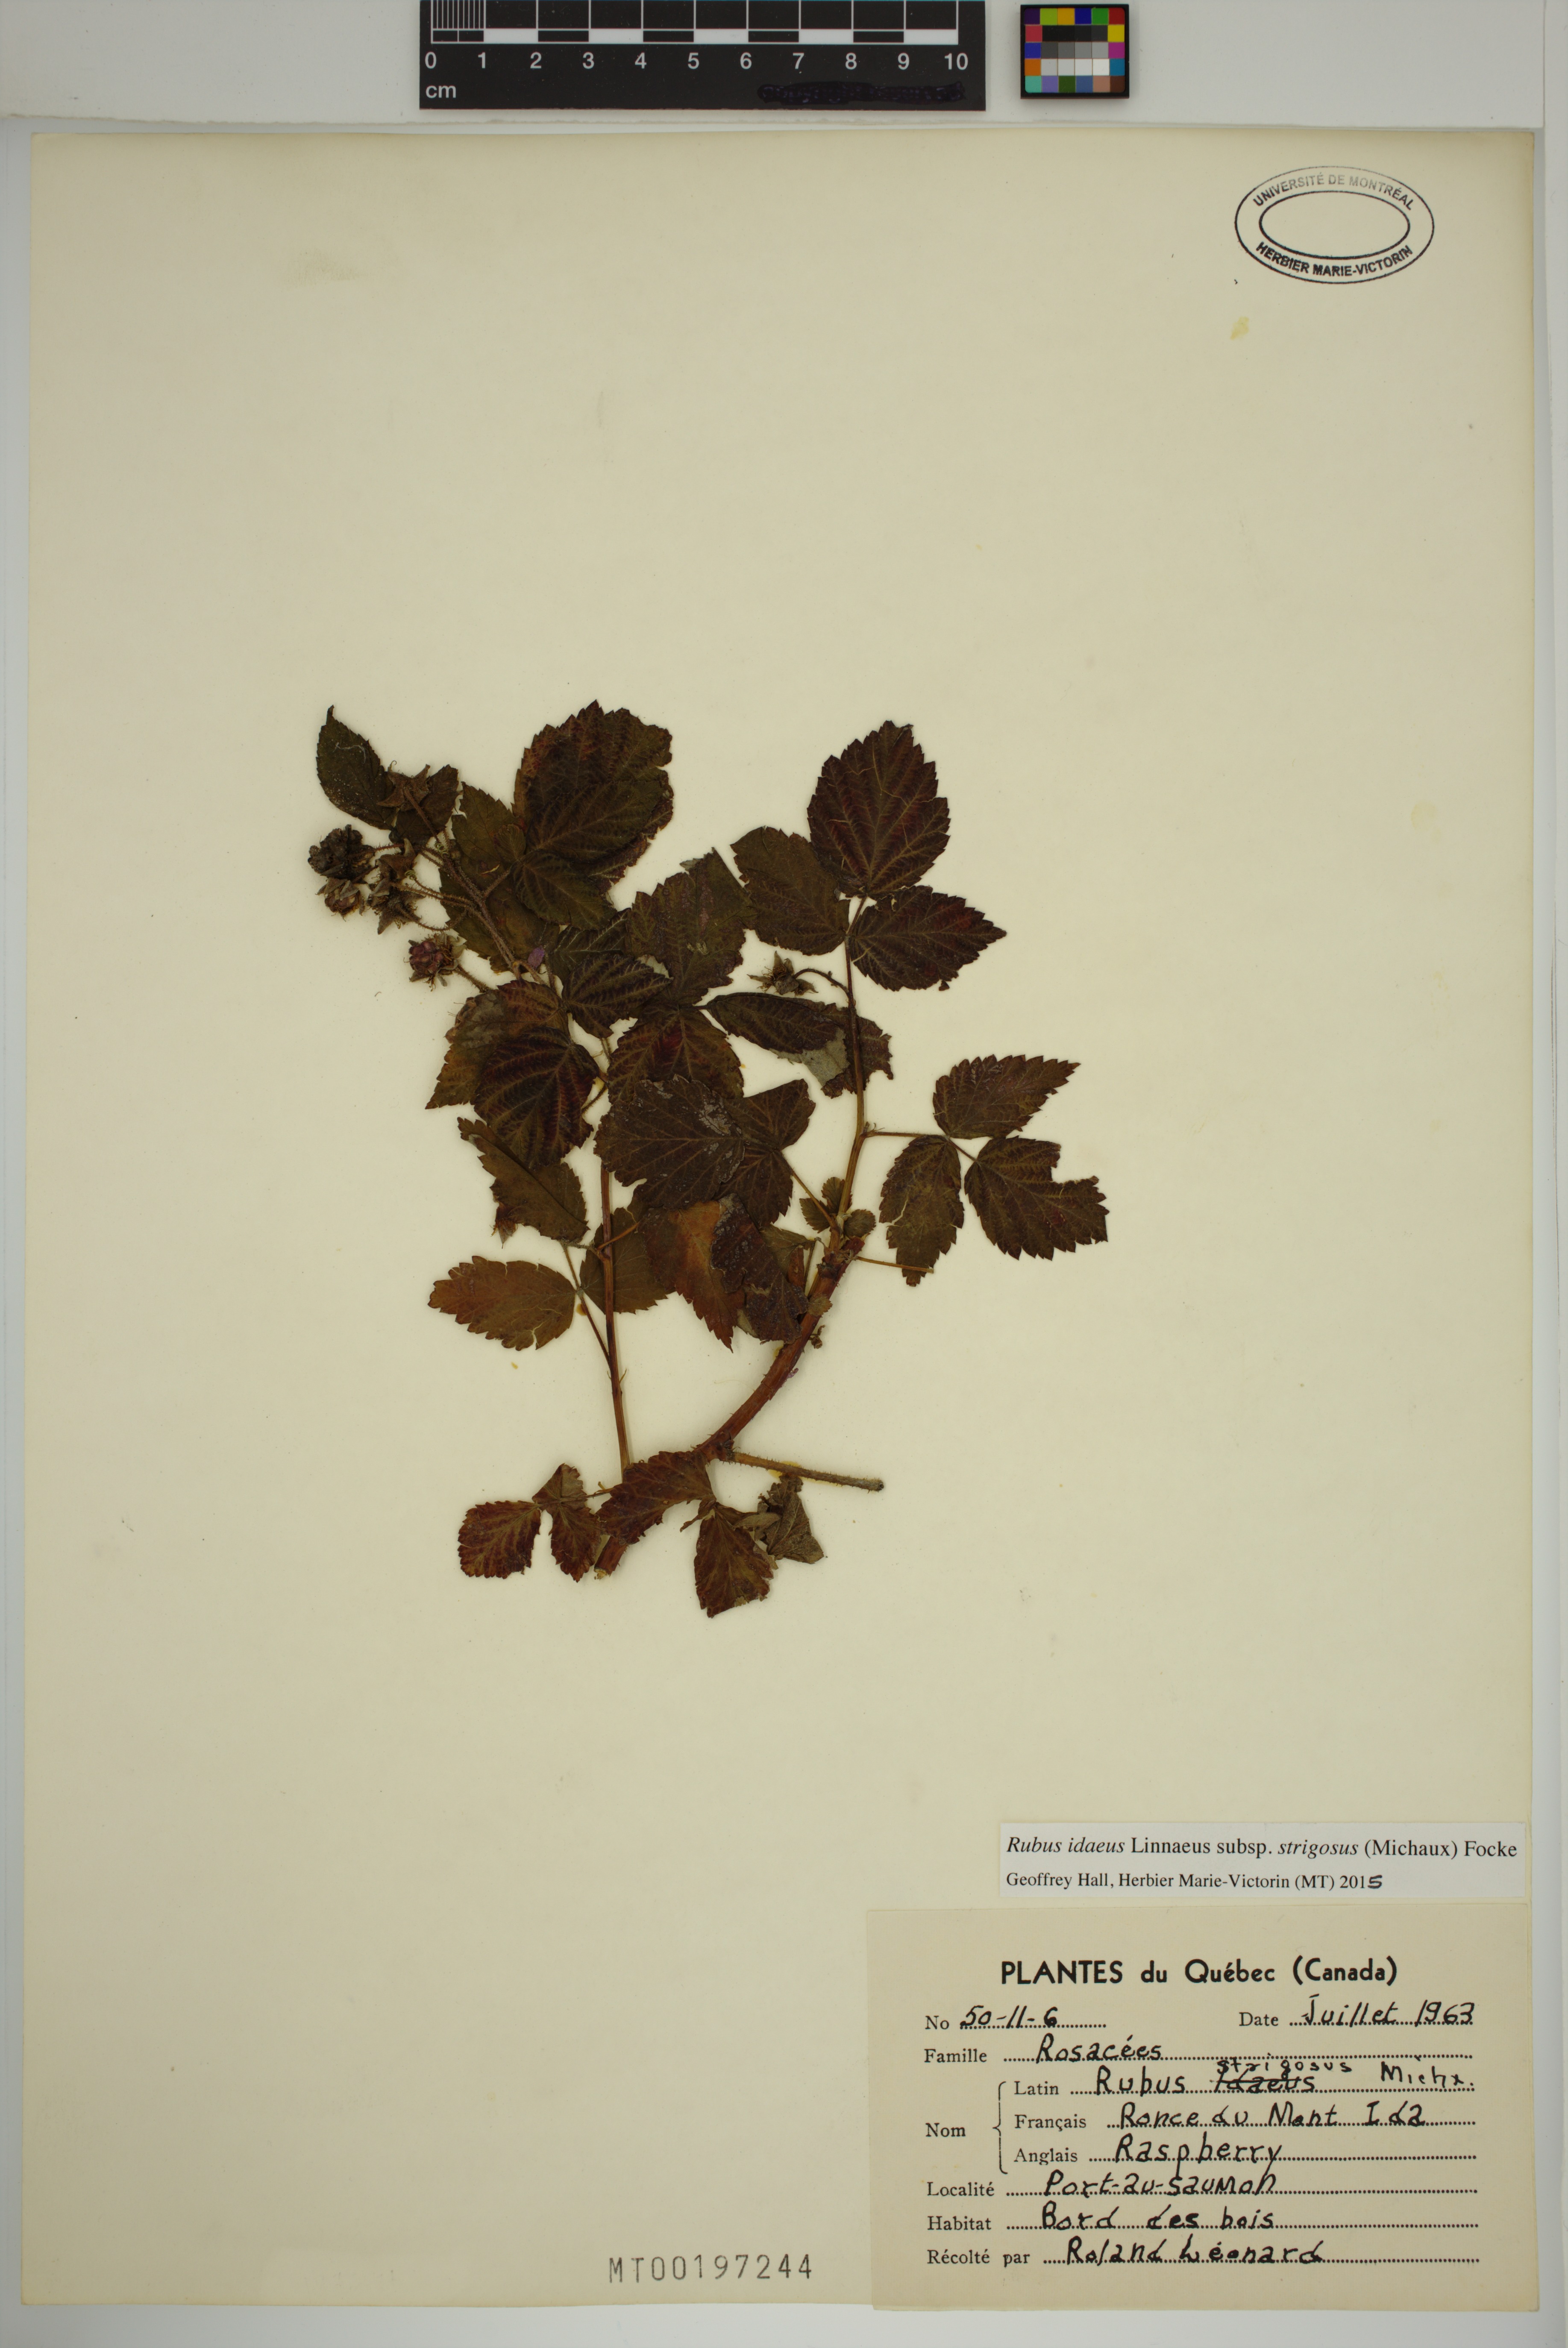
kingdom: Plantae
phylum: Tracheophyta
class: Magnoliopsida
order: Rosales
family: Rosaceae
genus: Rubus
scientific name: Rubus sachalinensis
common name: Red raspberry
